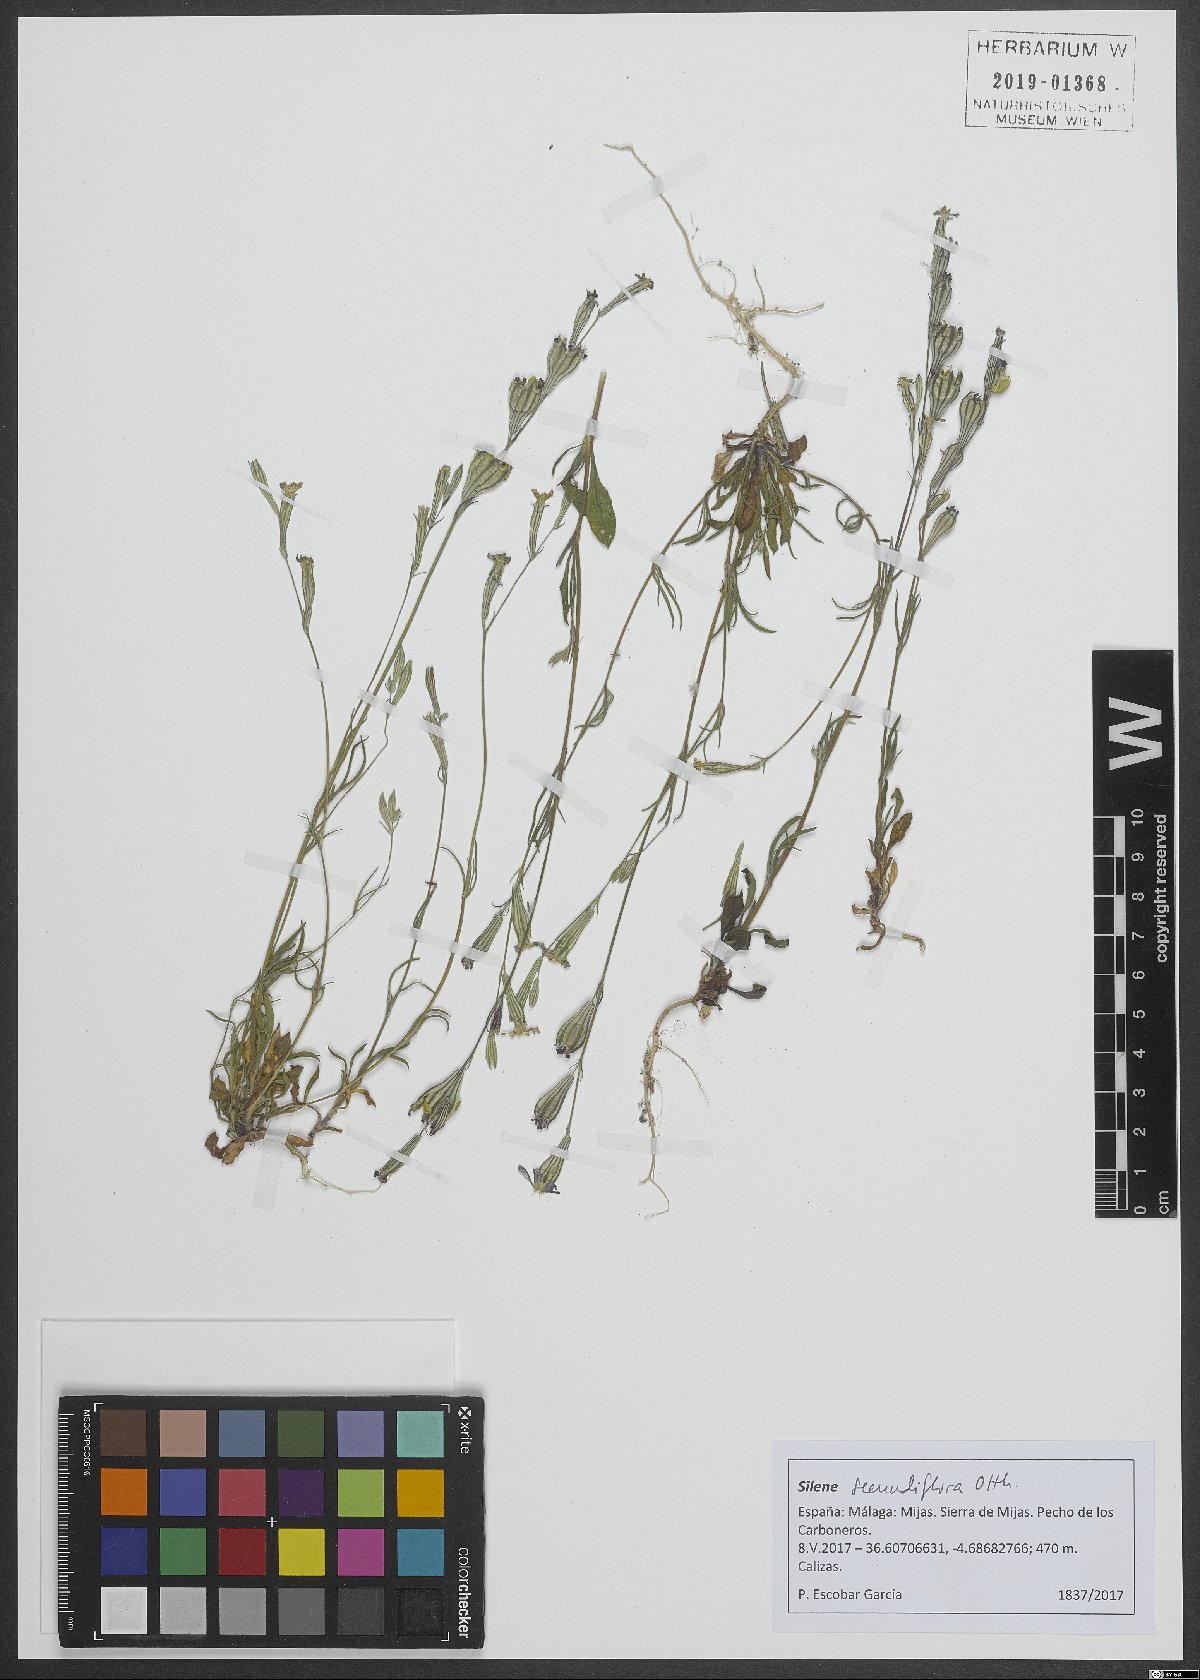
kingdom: Plantae
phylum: Tracheophyta
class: Magnoliopsida
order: Caryophyllales
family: Caryophyllaceae
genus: Silene
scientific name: Silene secundiflora
